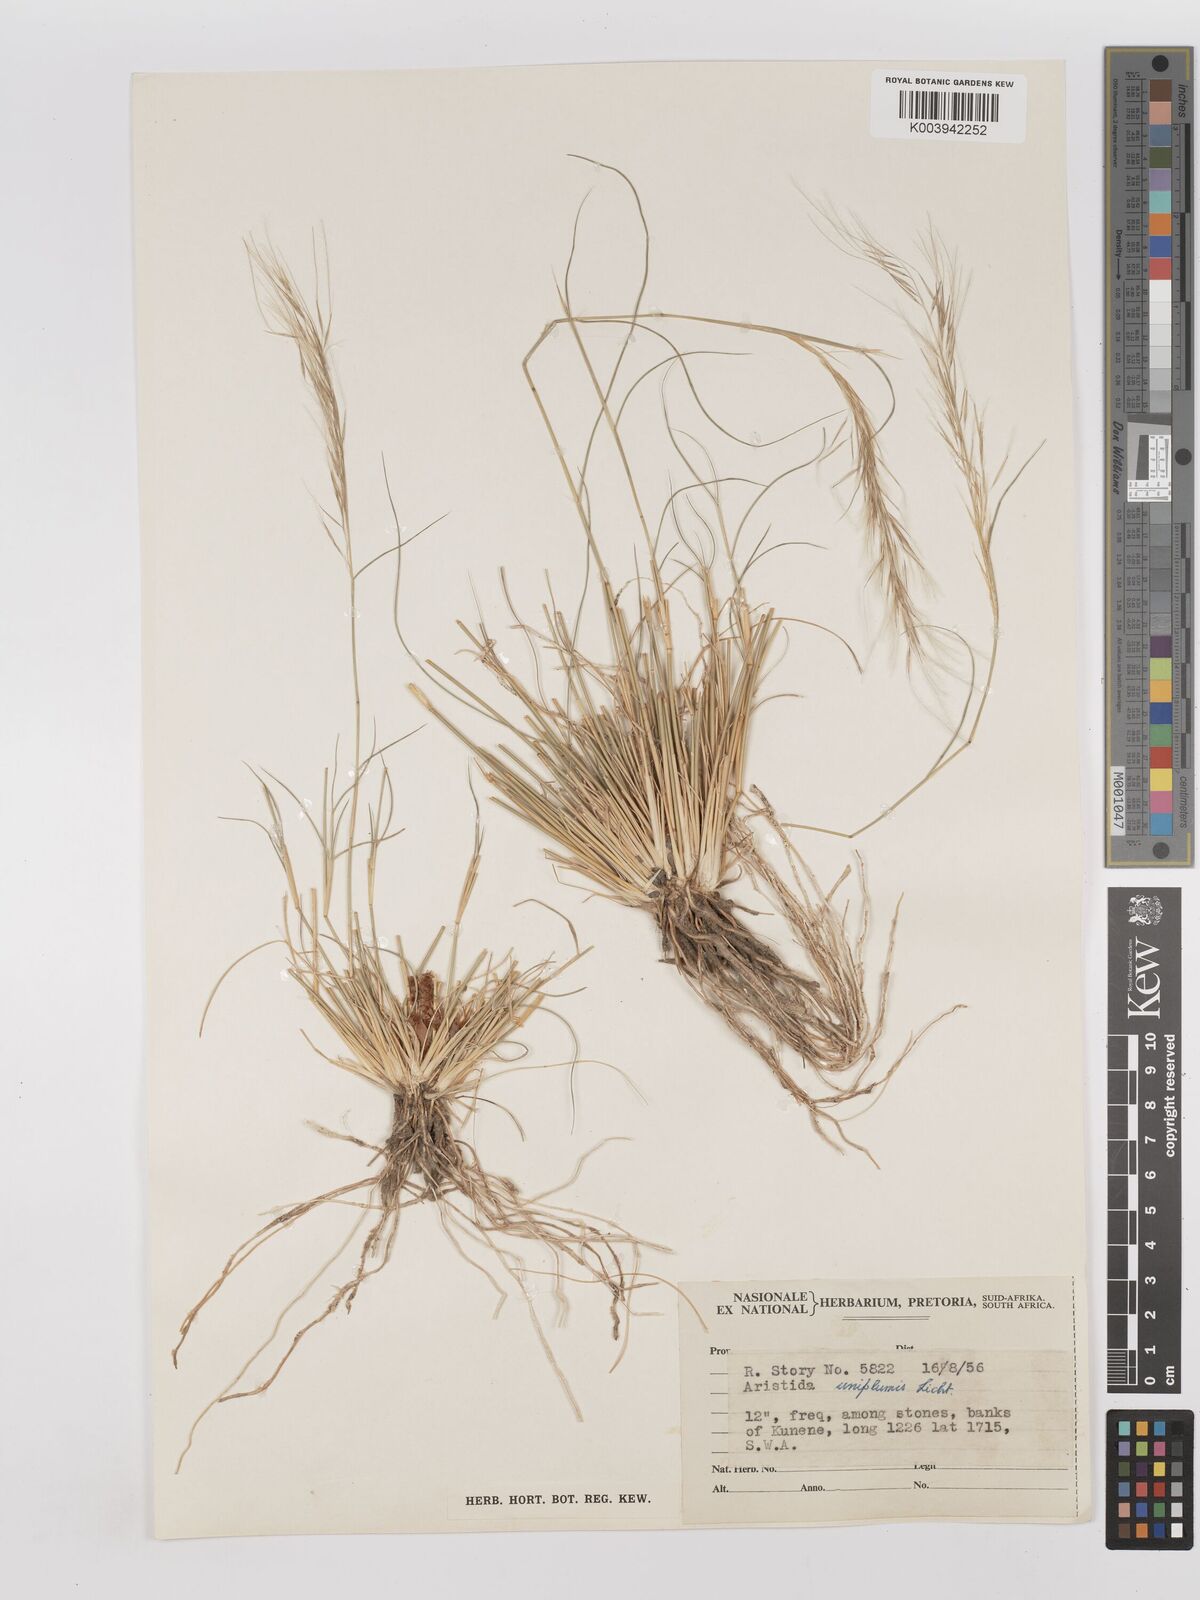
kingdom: Plantae
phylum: Tracheophyta
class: Liliopsida
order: Poales
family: Poaceae
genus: Stipagrostis
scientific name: Stipagrostis uniplumis
